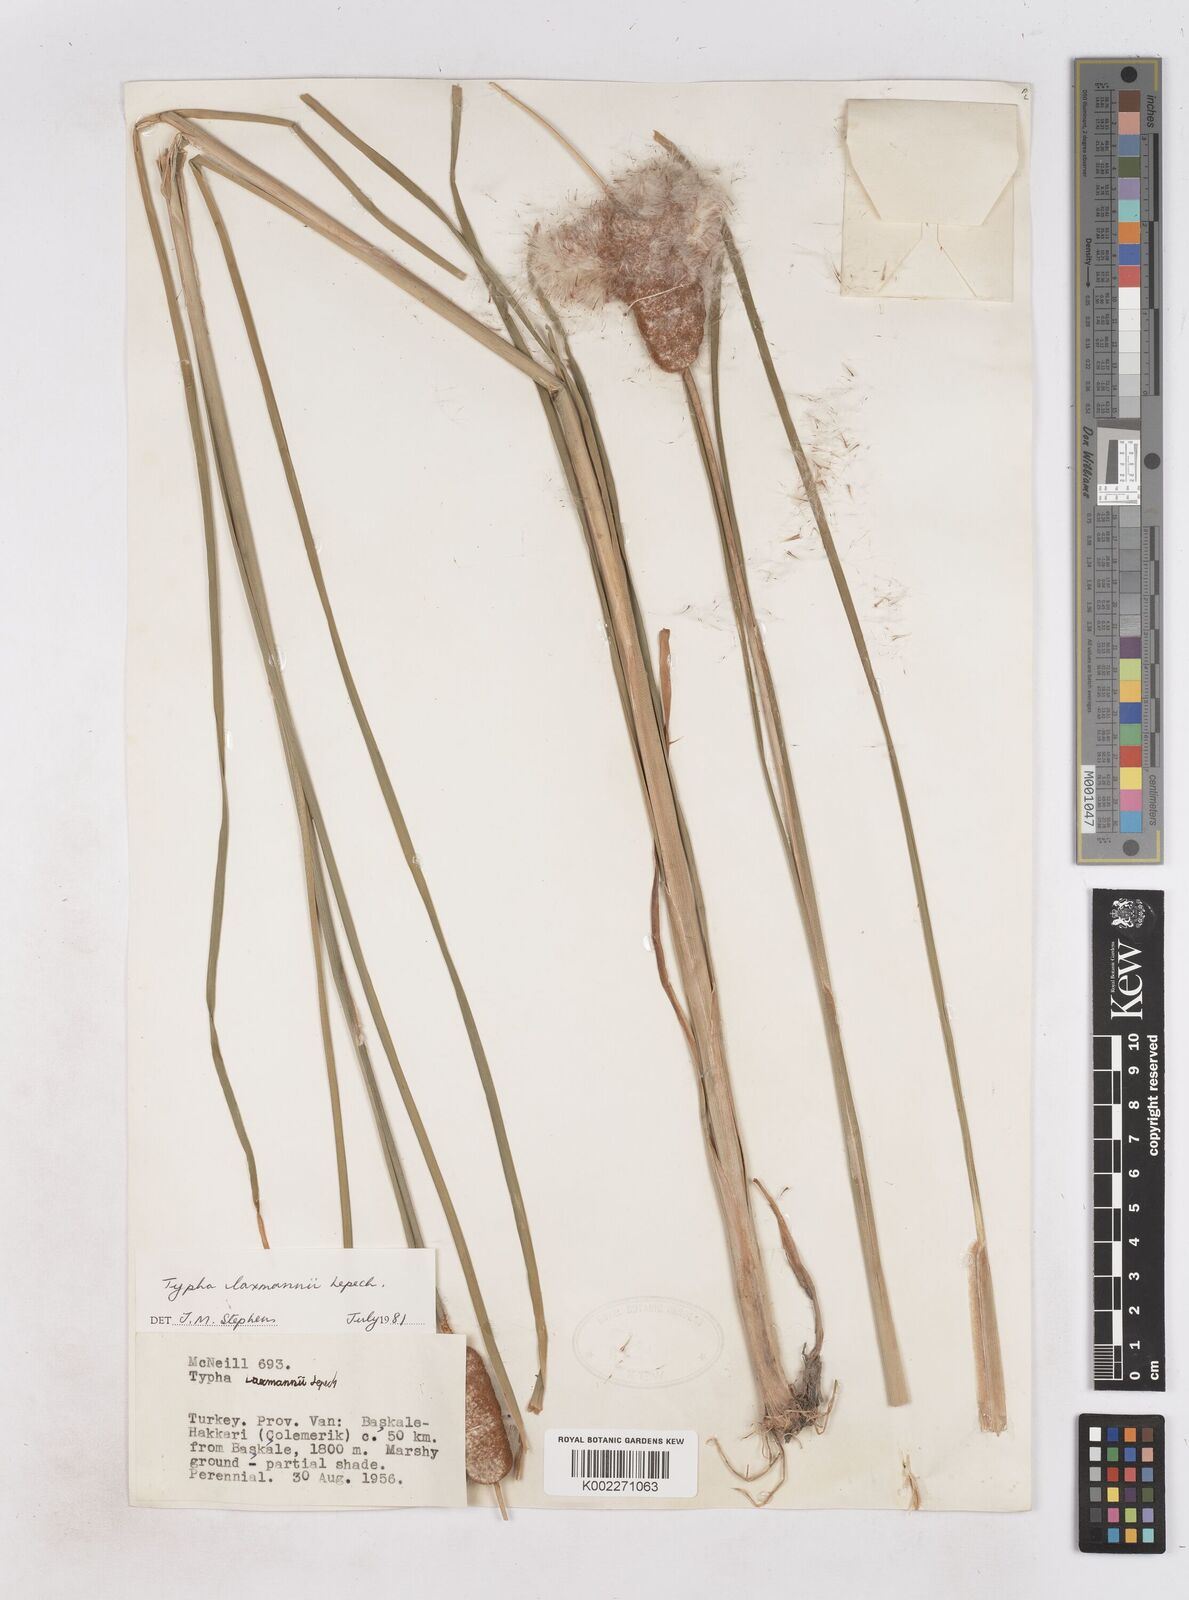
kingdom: Plantae
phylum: Tracheophyta
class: Liliopsida
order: Poales
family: Typhaceae
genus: Typha
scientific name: Typha laxmannii
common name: Laxman’s bulrush
